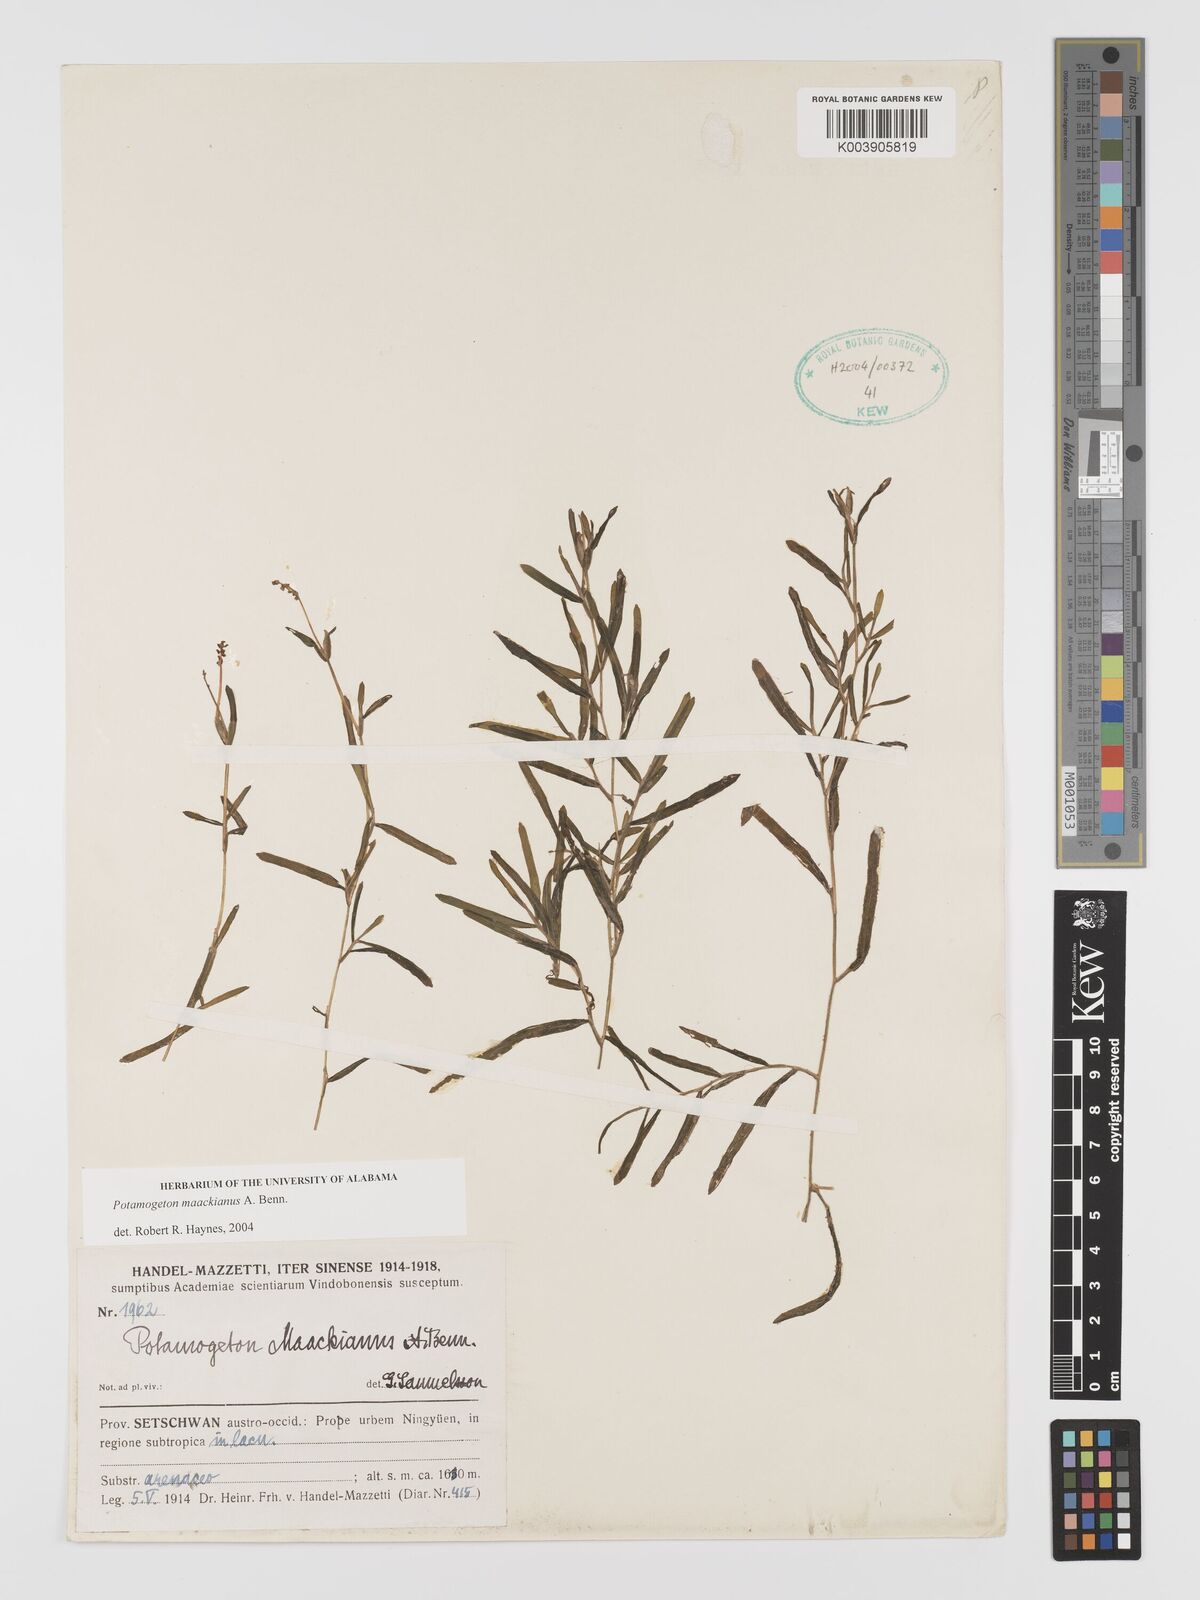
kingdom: Plantae
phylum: Tracheophyta
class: Liliopsida
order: Alismatales
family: Potamogetonaceae
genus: Potamogeton
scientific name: Potamogeton maackianus
